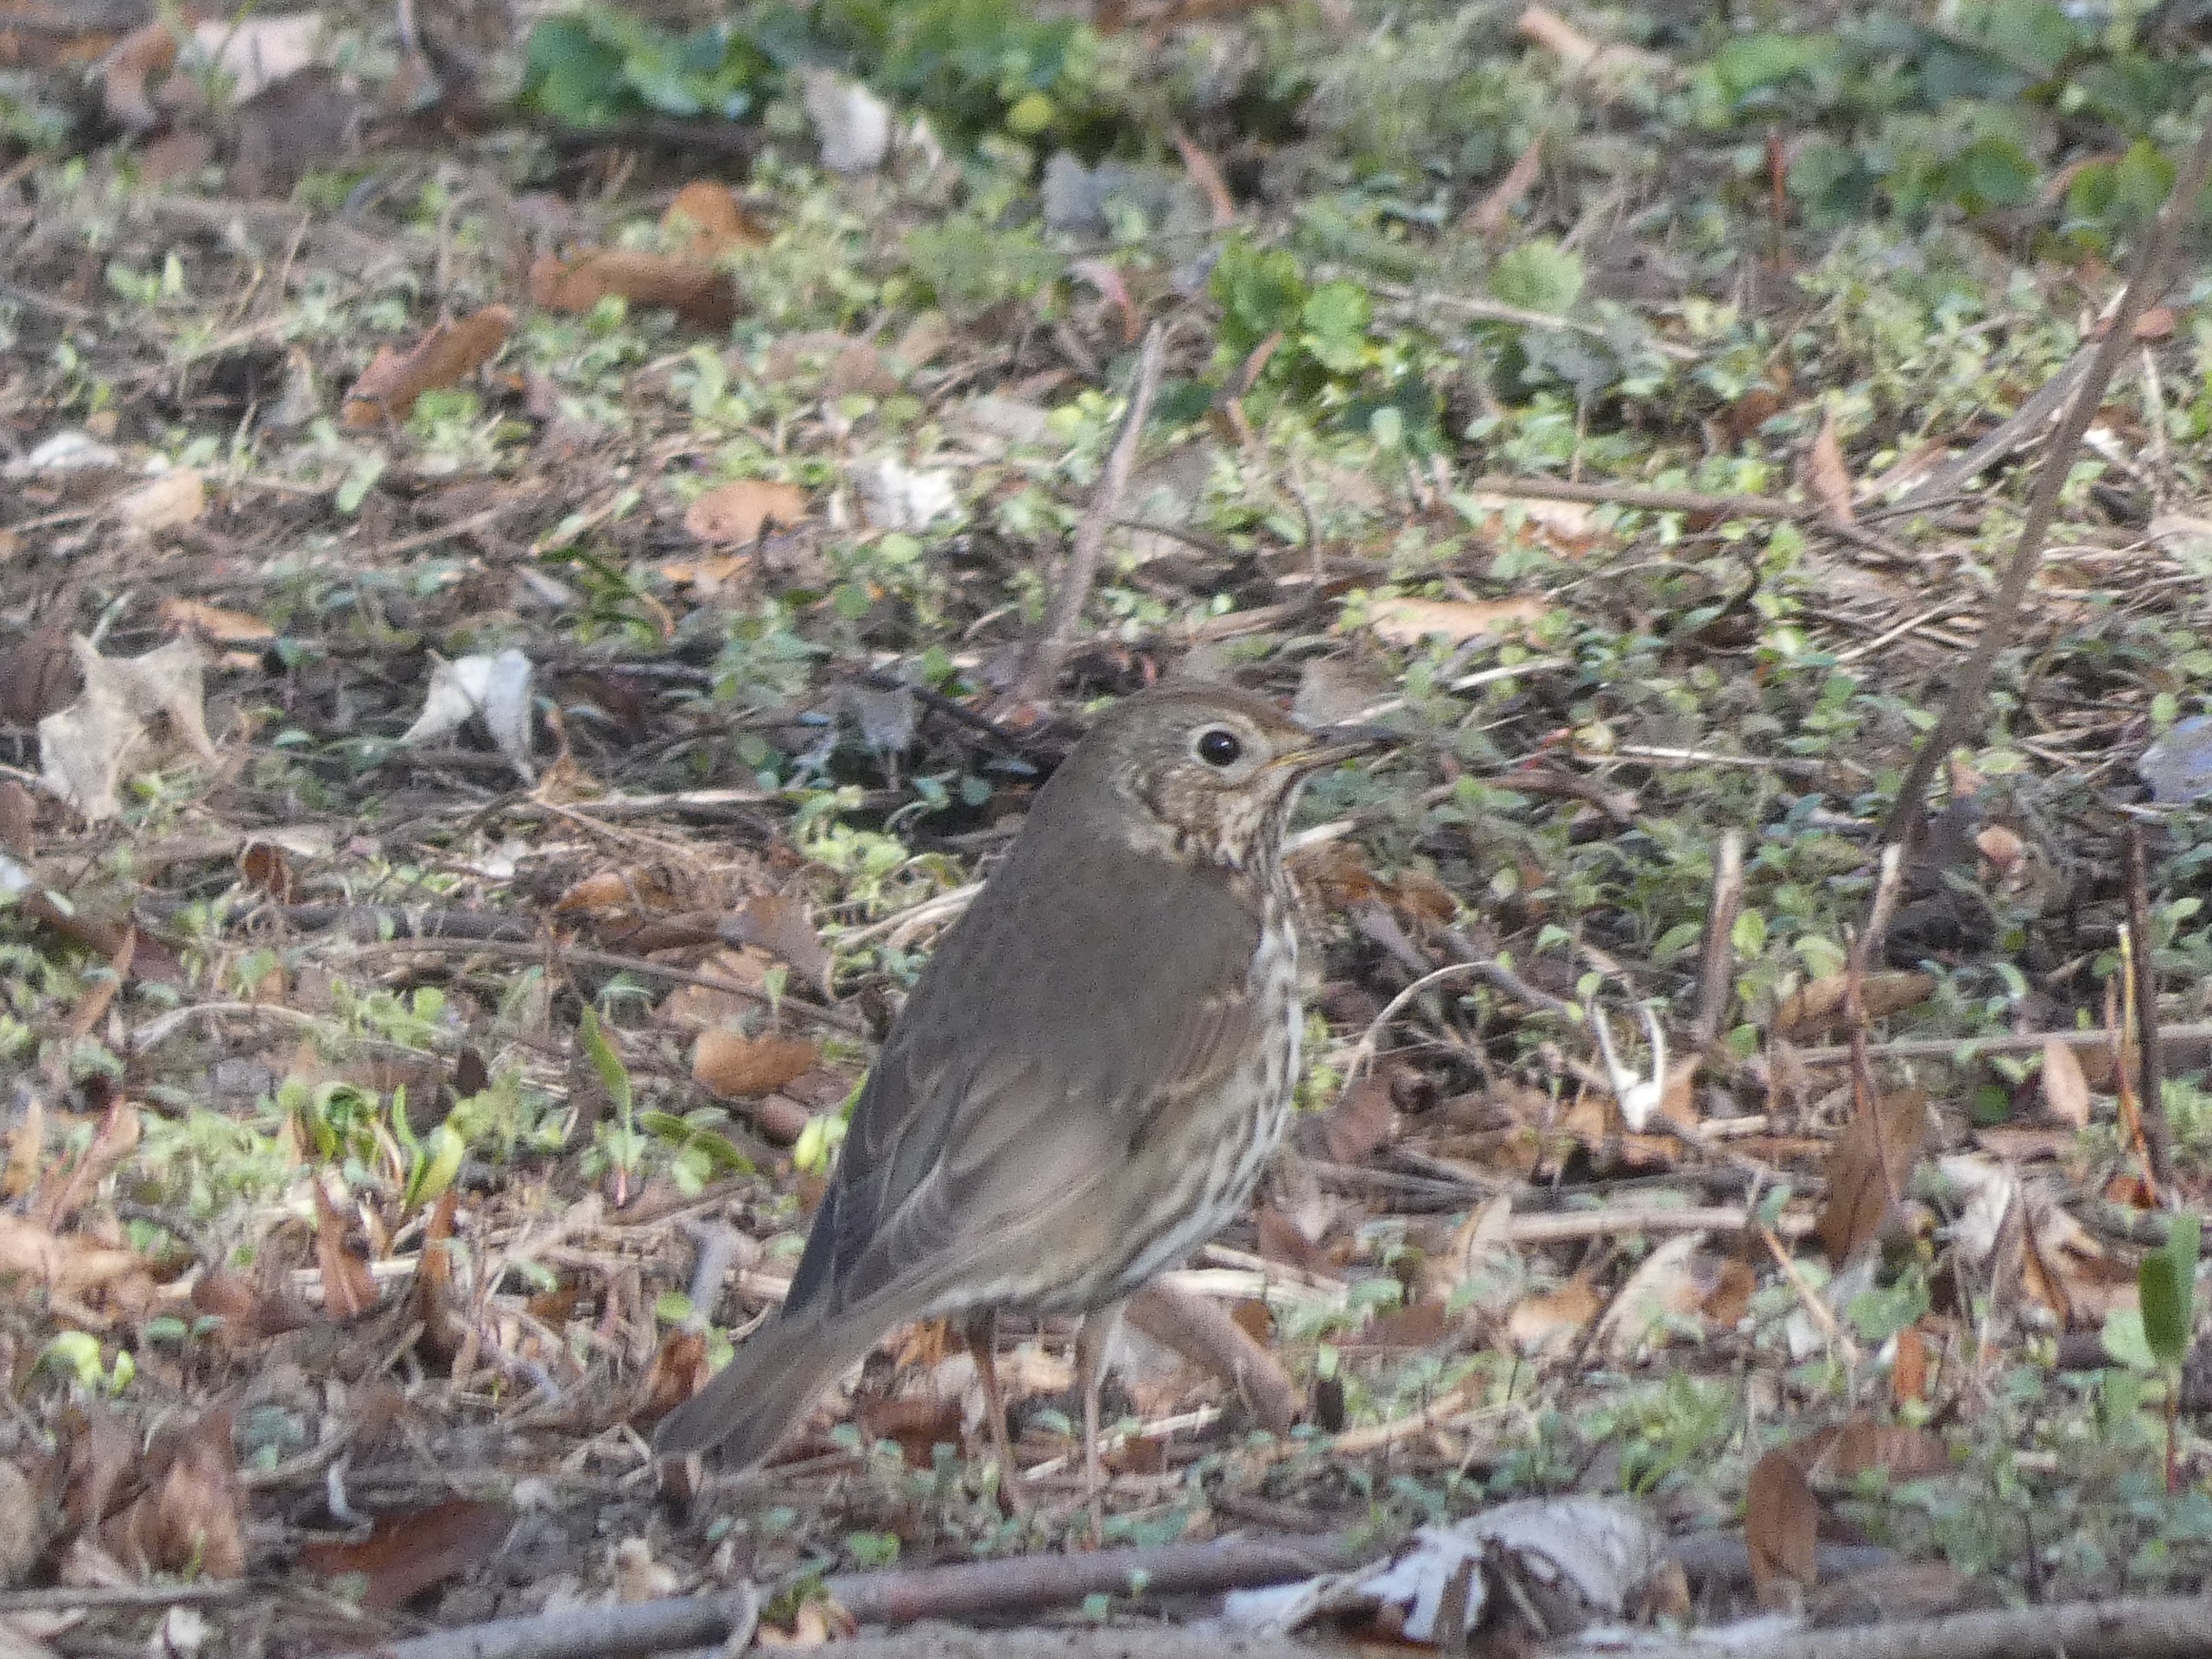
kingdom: Animalia
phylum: Chordata
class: Aves
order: Passeriformes
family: Turdidae
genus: Turdus
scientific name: Turdus philomelos
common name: Sangdrossel
